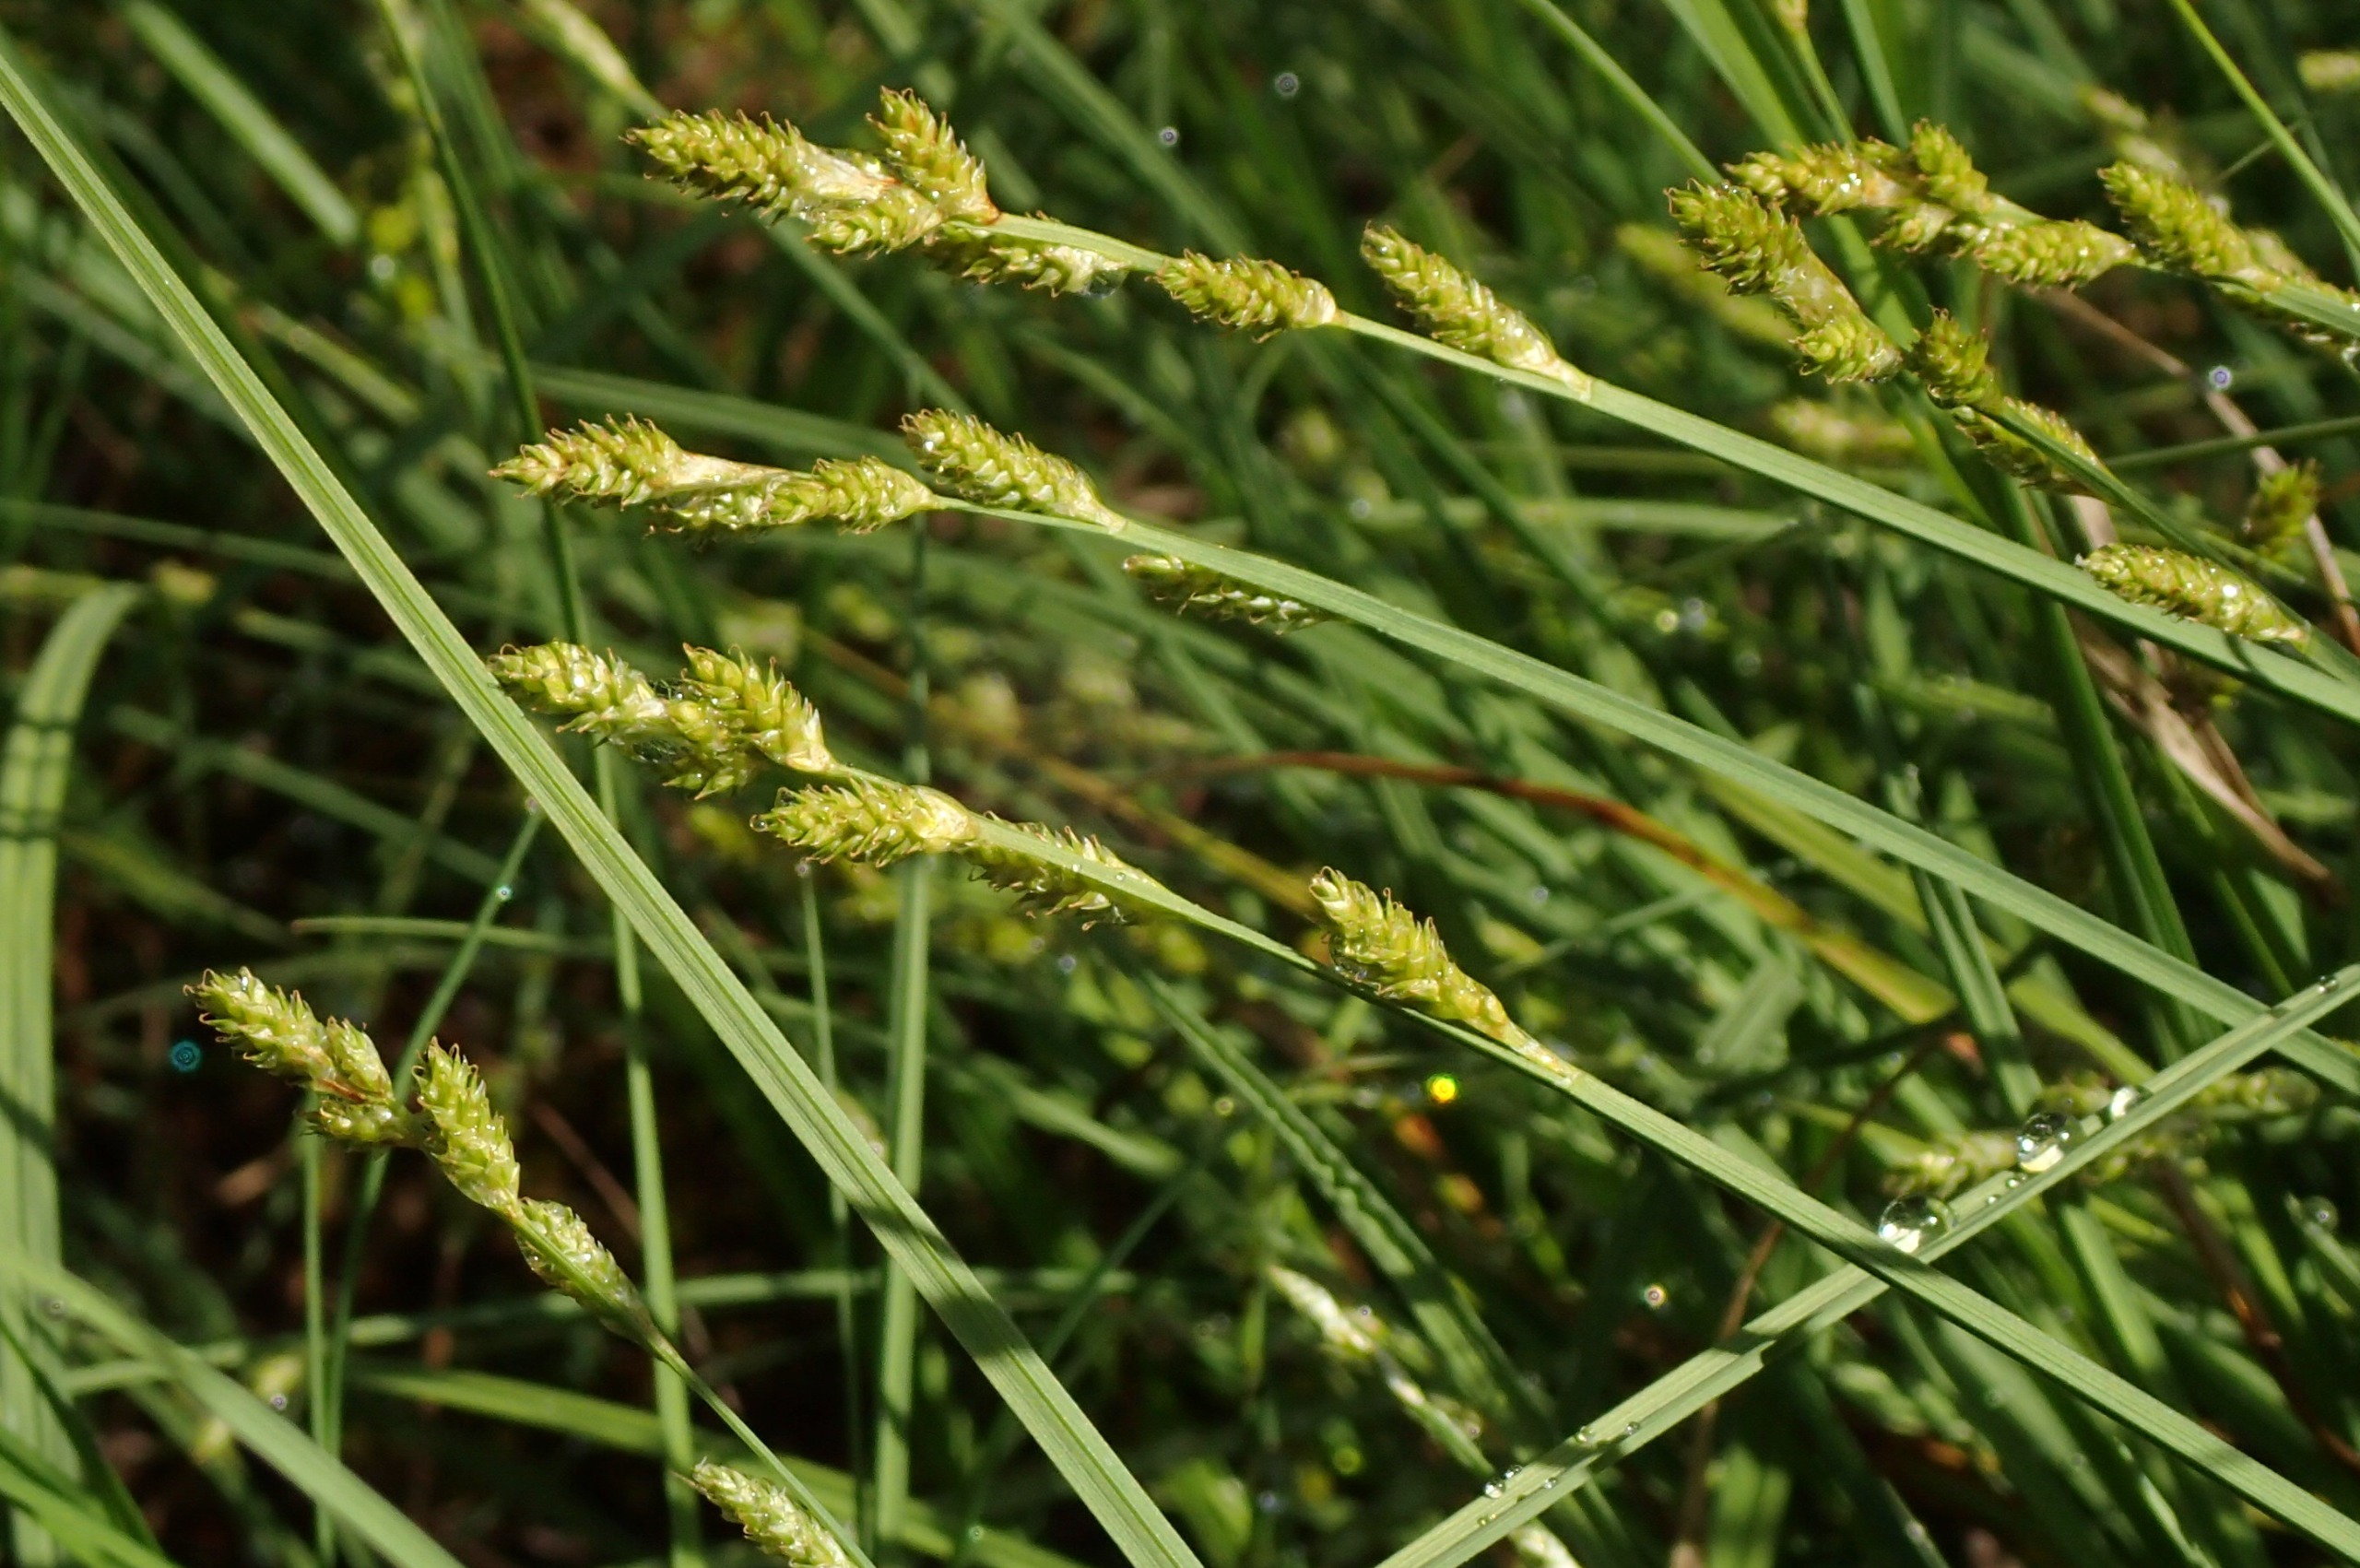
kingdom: Plantae
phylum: Tracheophyta
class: Liliopsida
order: Poales
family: Cyperaceae
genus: Carex
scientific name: Carex canescens
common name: Grå star
